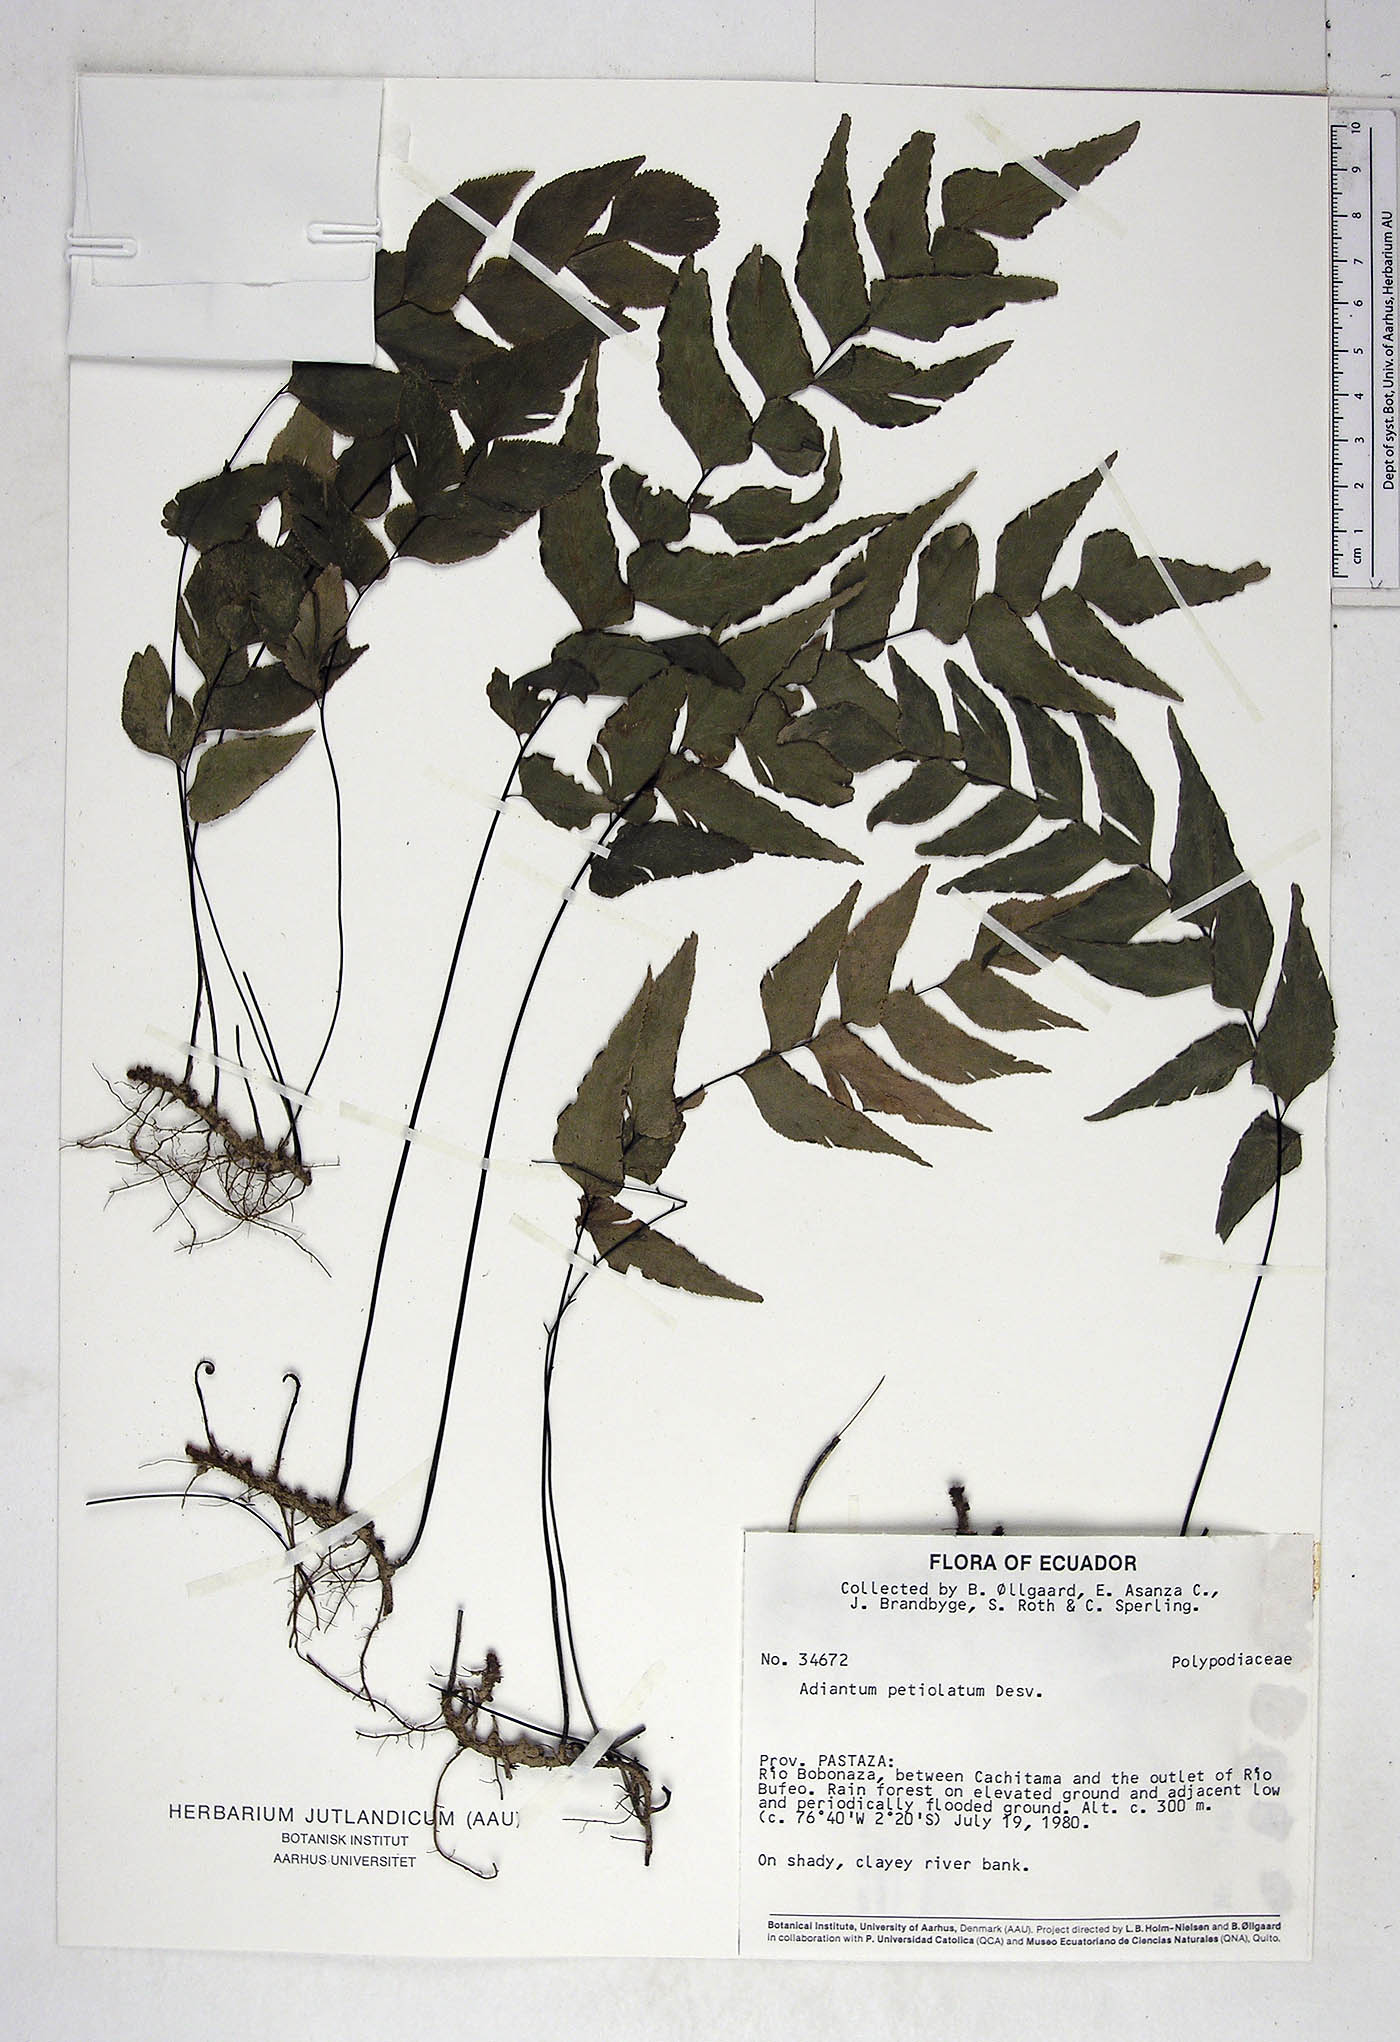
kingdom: Plantae
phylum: Tracheophyta
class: Polypodiopsida
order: Polypodiales
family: Pteridaceae
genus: Adiantum
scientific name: Adiantum petiolatum
